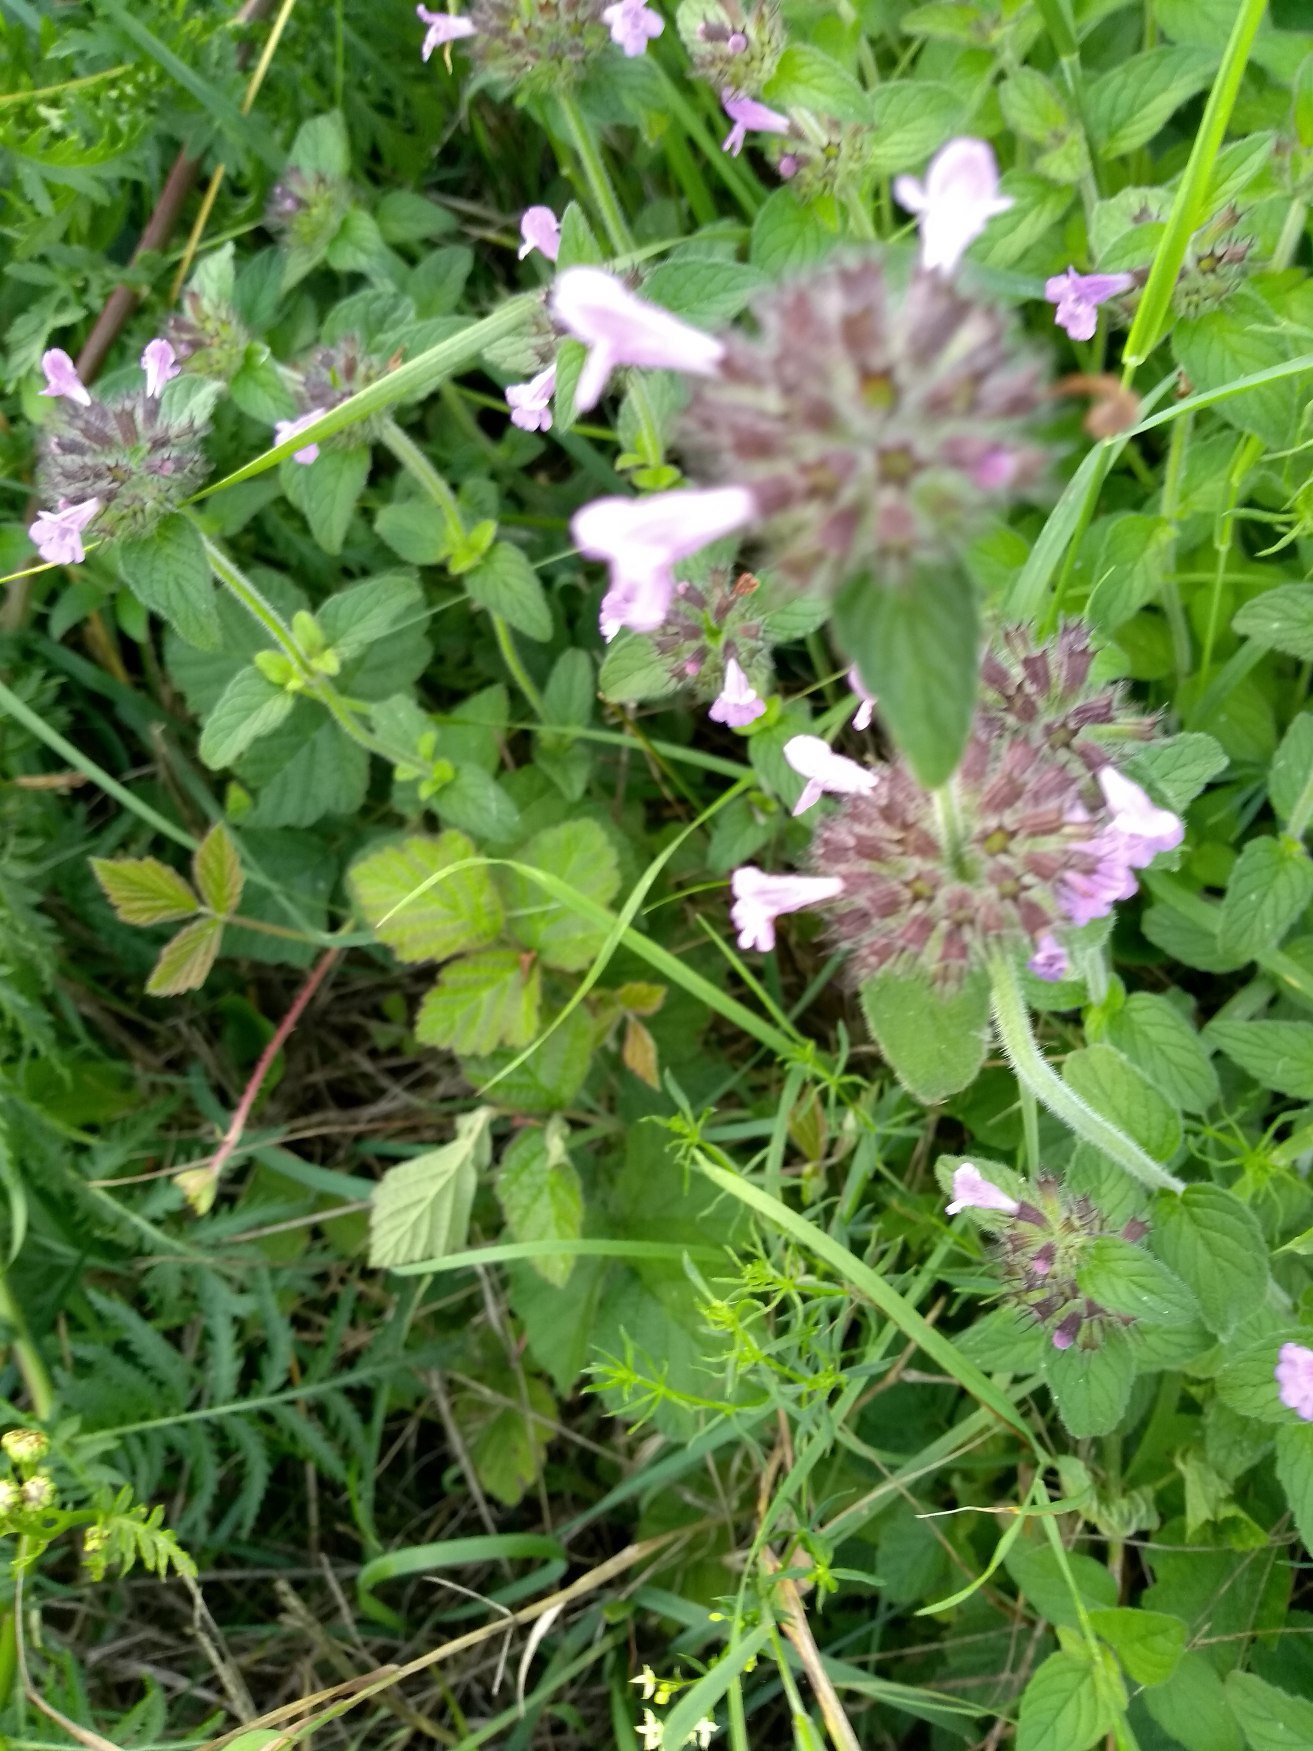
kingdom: Plantae
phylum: Tracheophyta
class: Magnoliopsida
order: Lamiales
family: Lamiaceae
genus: Clinopodium
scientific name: Clinopodium vulgare
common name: Kransbørste
